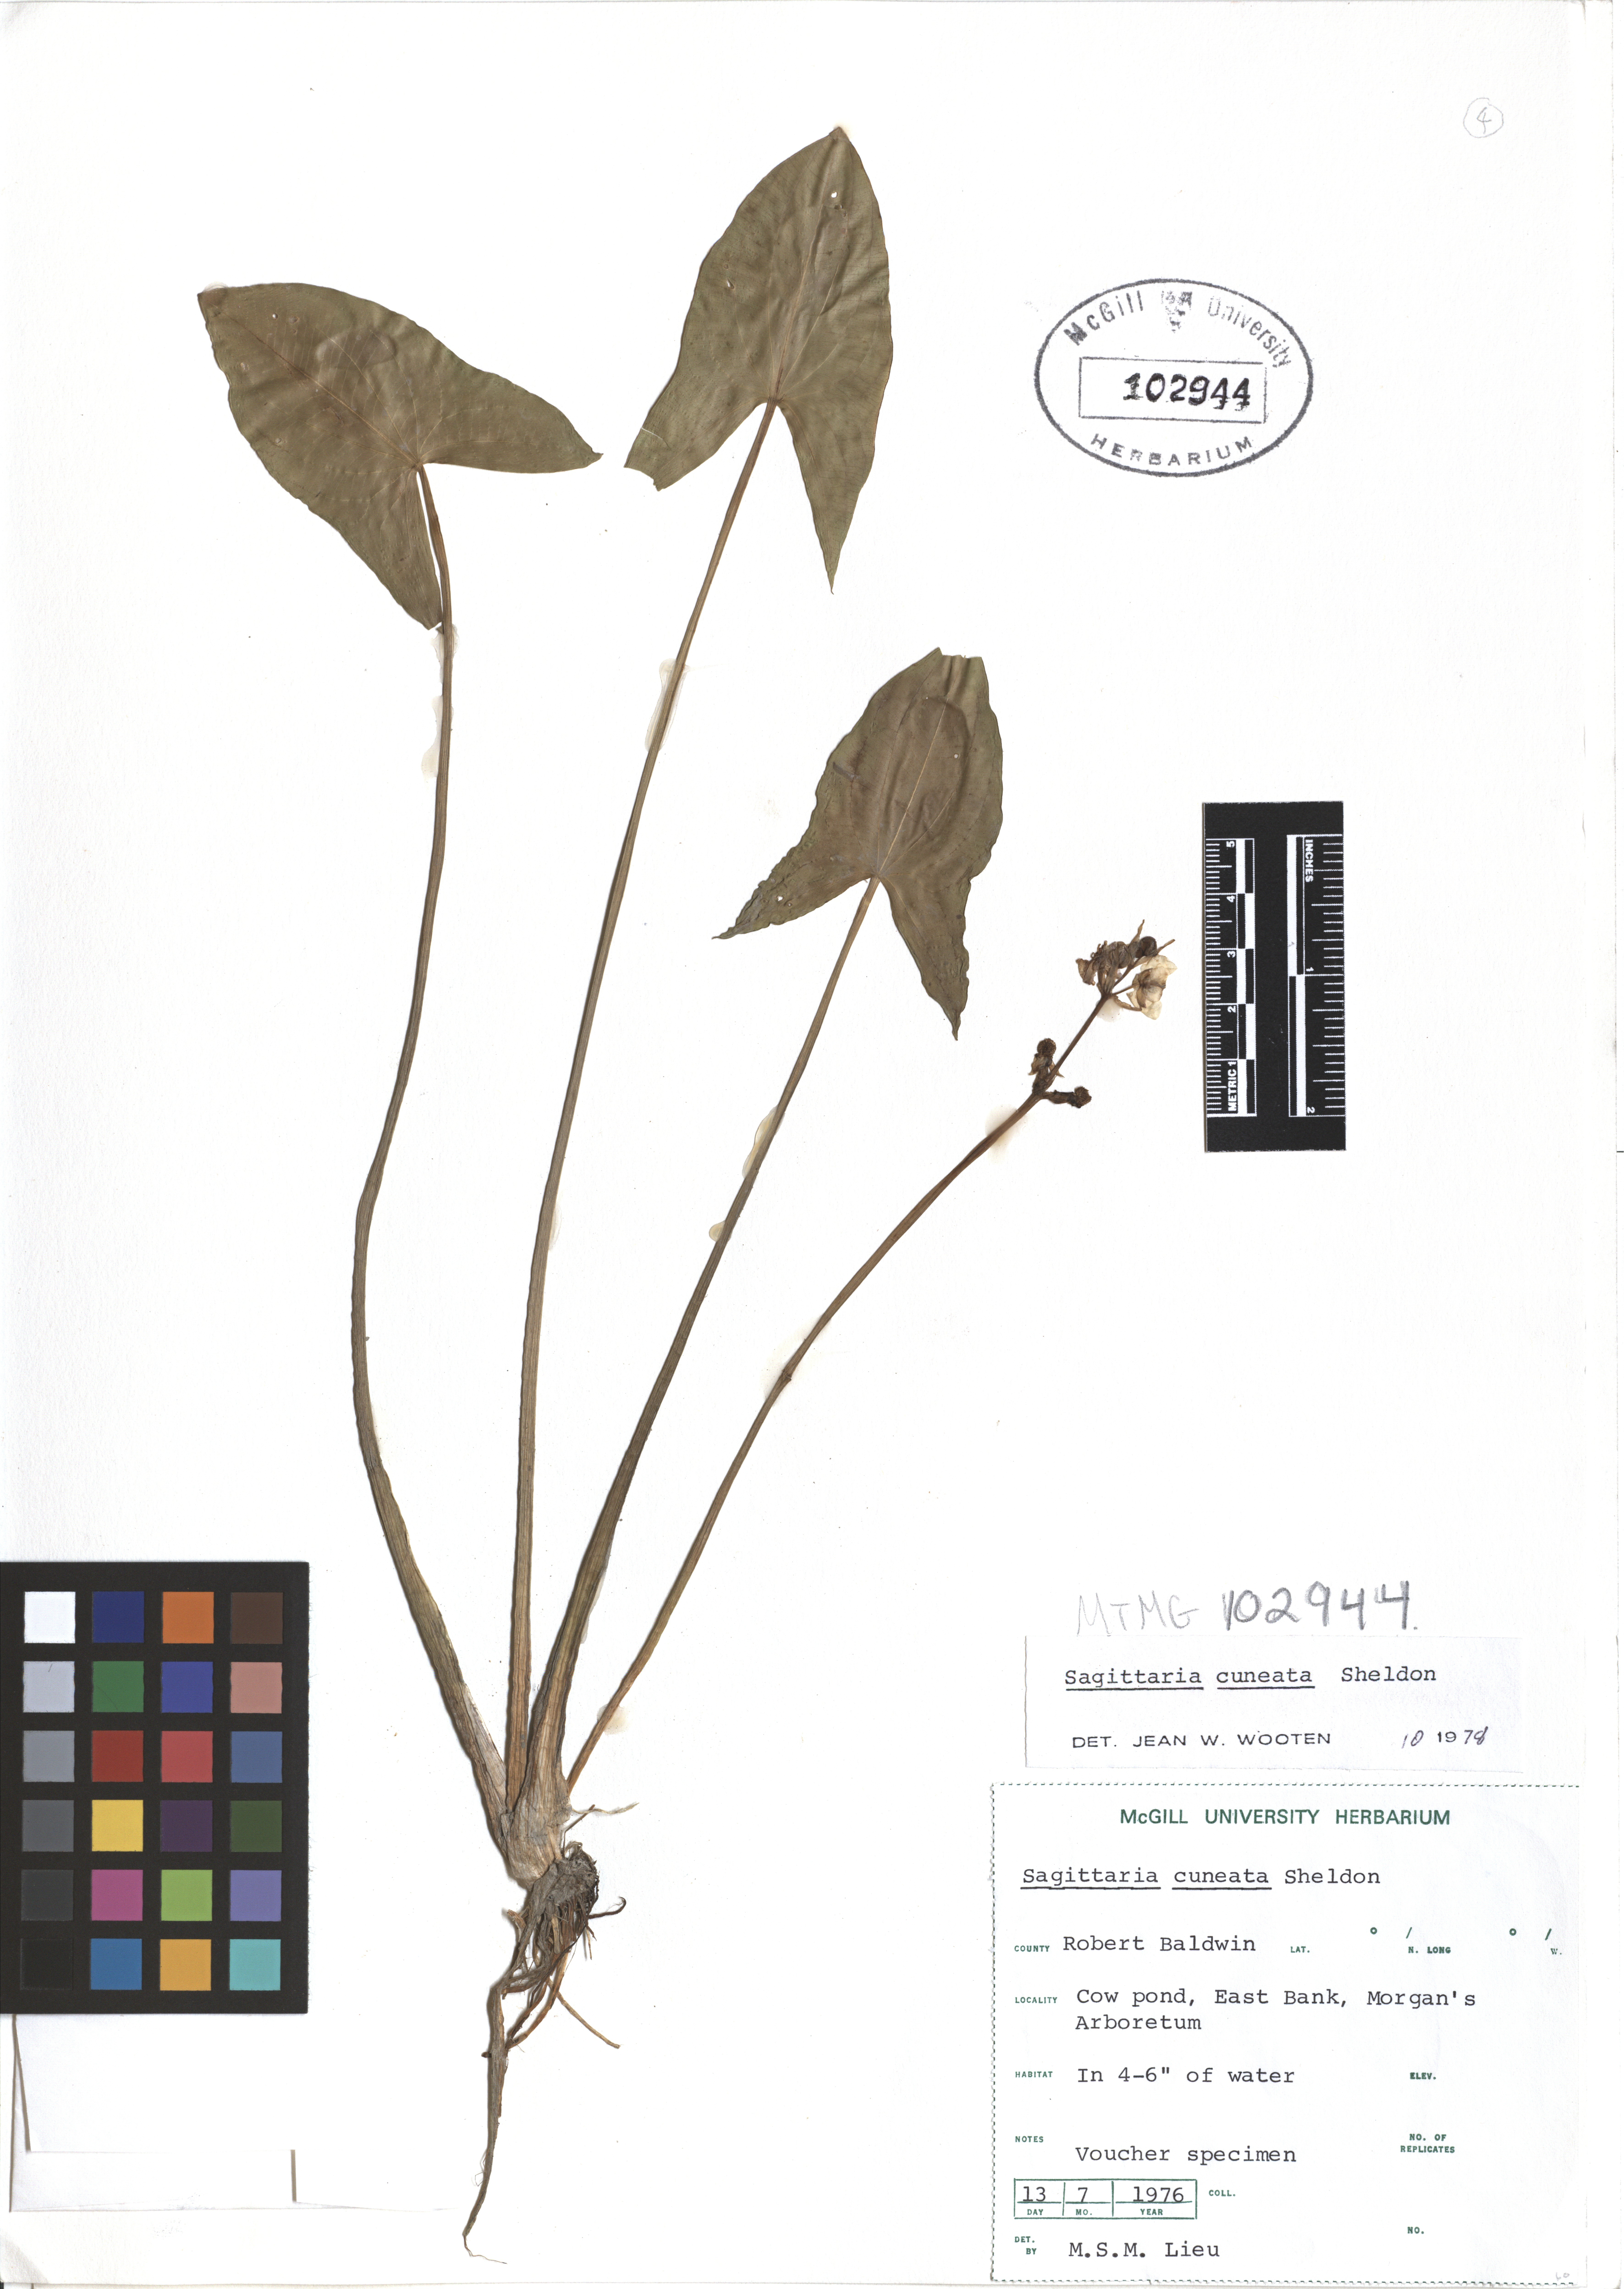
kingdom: Plantae
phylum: Tracheophyta
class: Liliopsida
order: Alismatales
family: Alismataceae
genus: Sagittaria
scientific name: Sagittaria cuneata
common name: Northern arrowhead
